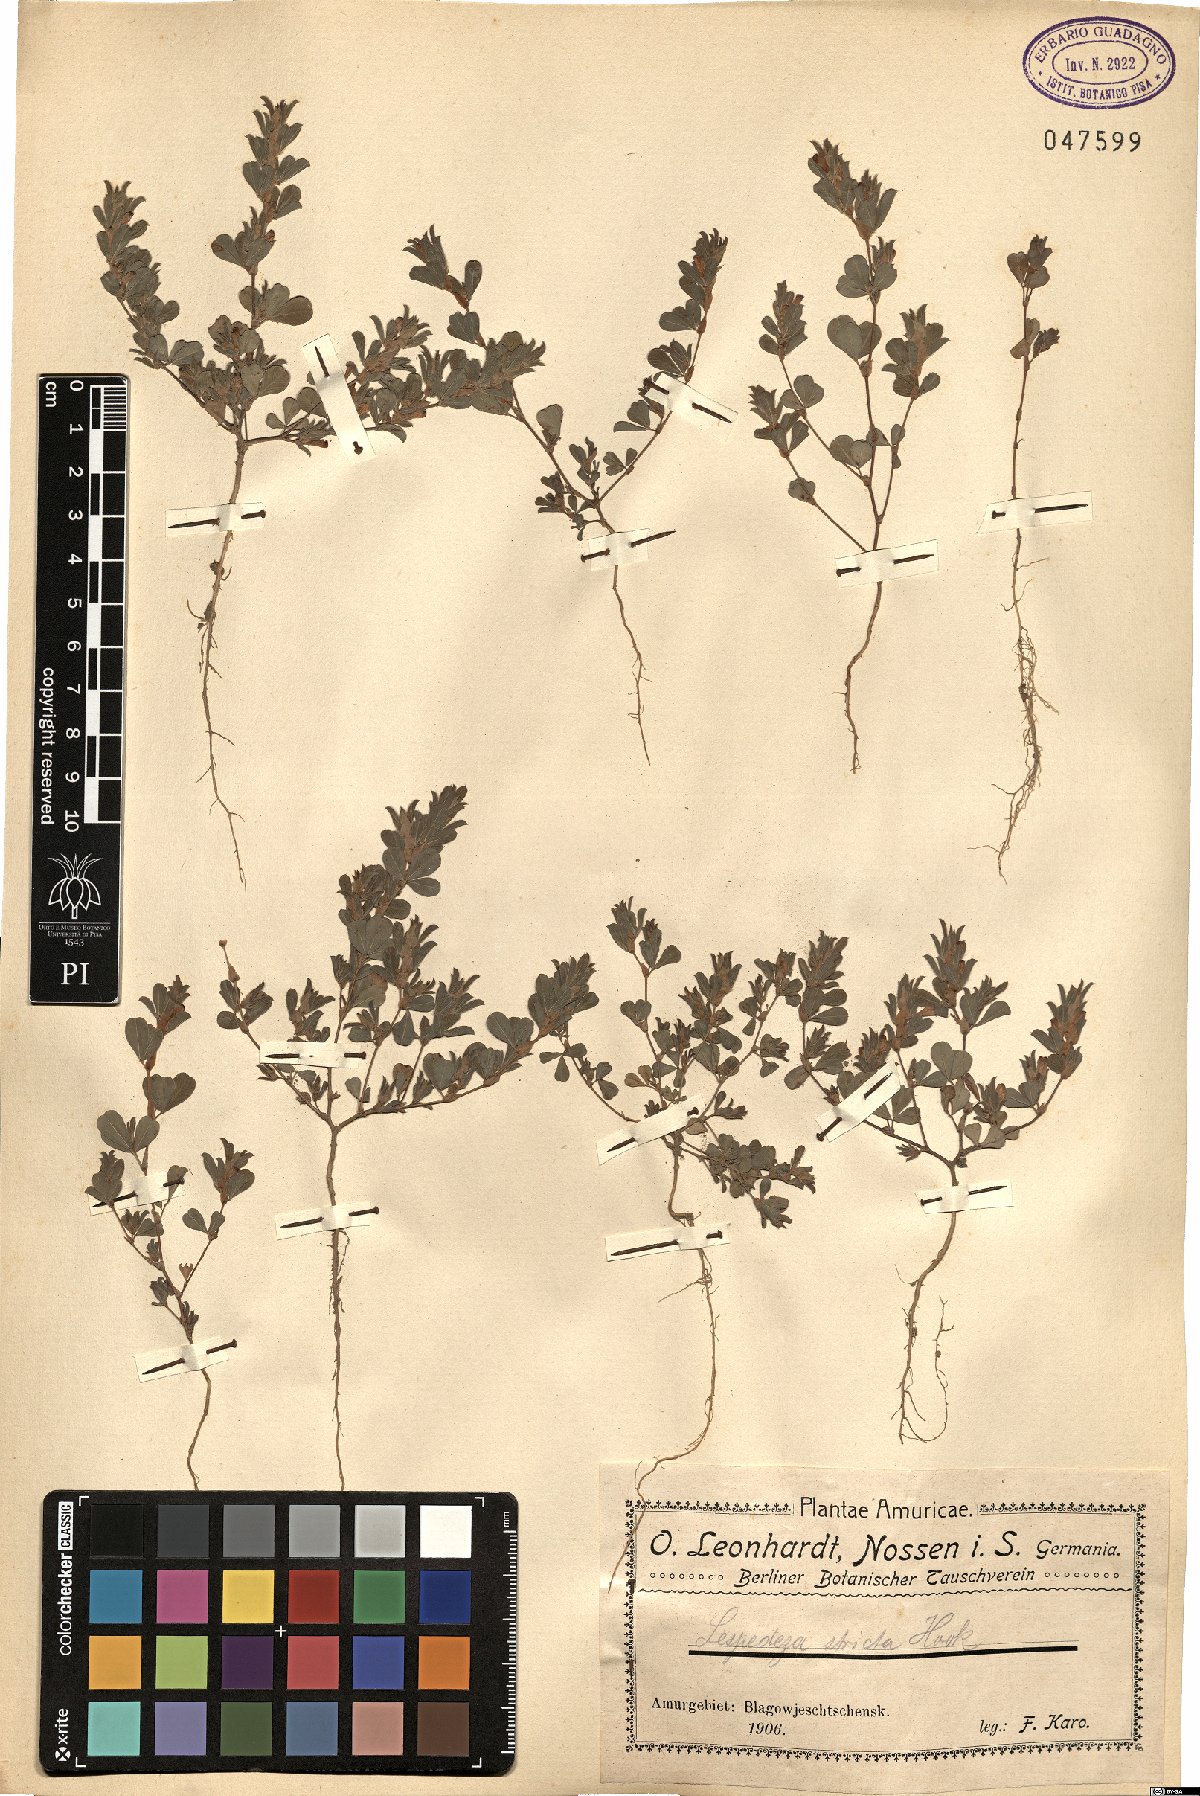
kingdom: Plantae
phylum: Tracheophyta
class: Magnoliopsida
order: Fabales
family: Fabaceae
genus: Kummerowia
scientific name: Kummerowia striata
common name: Japanese clover
